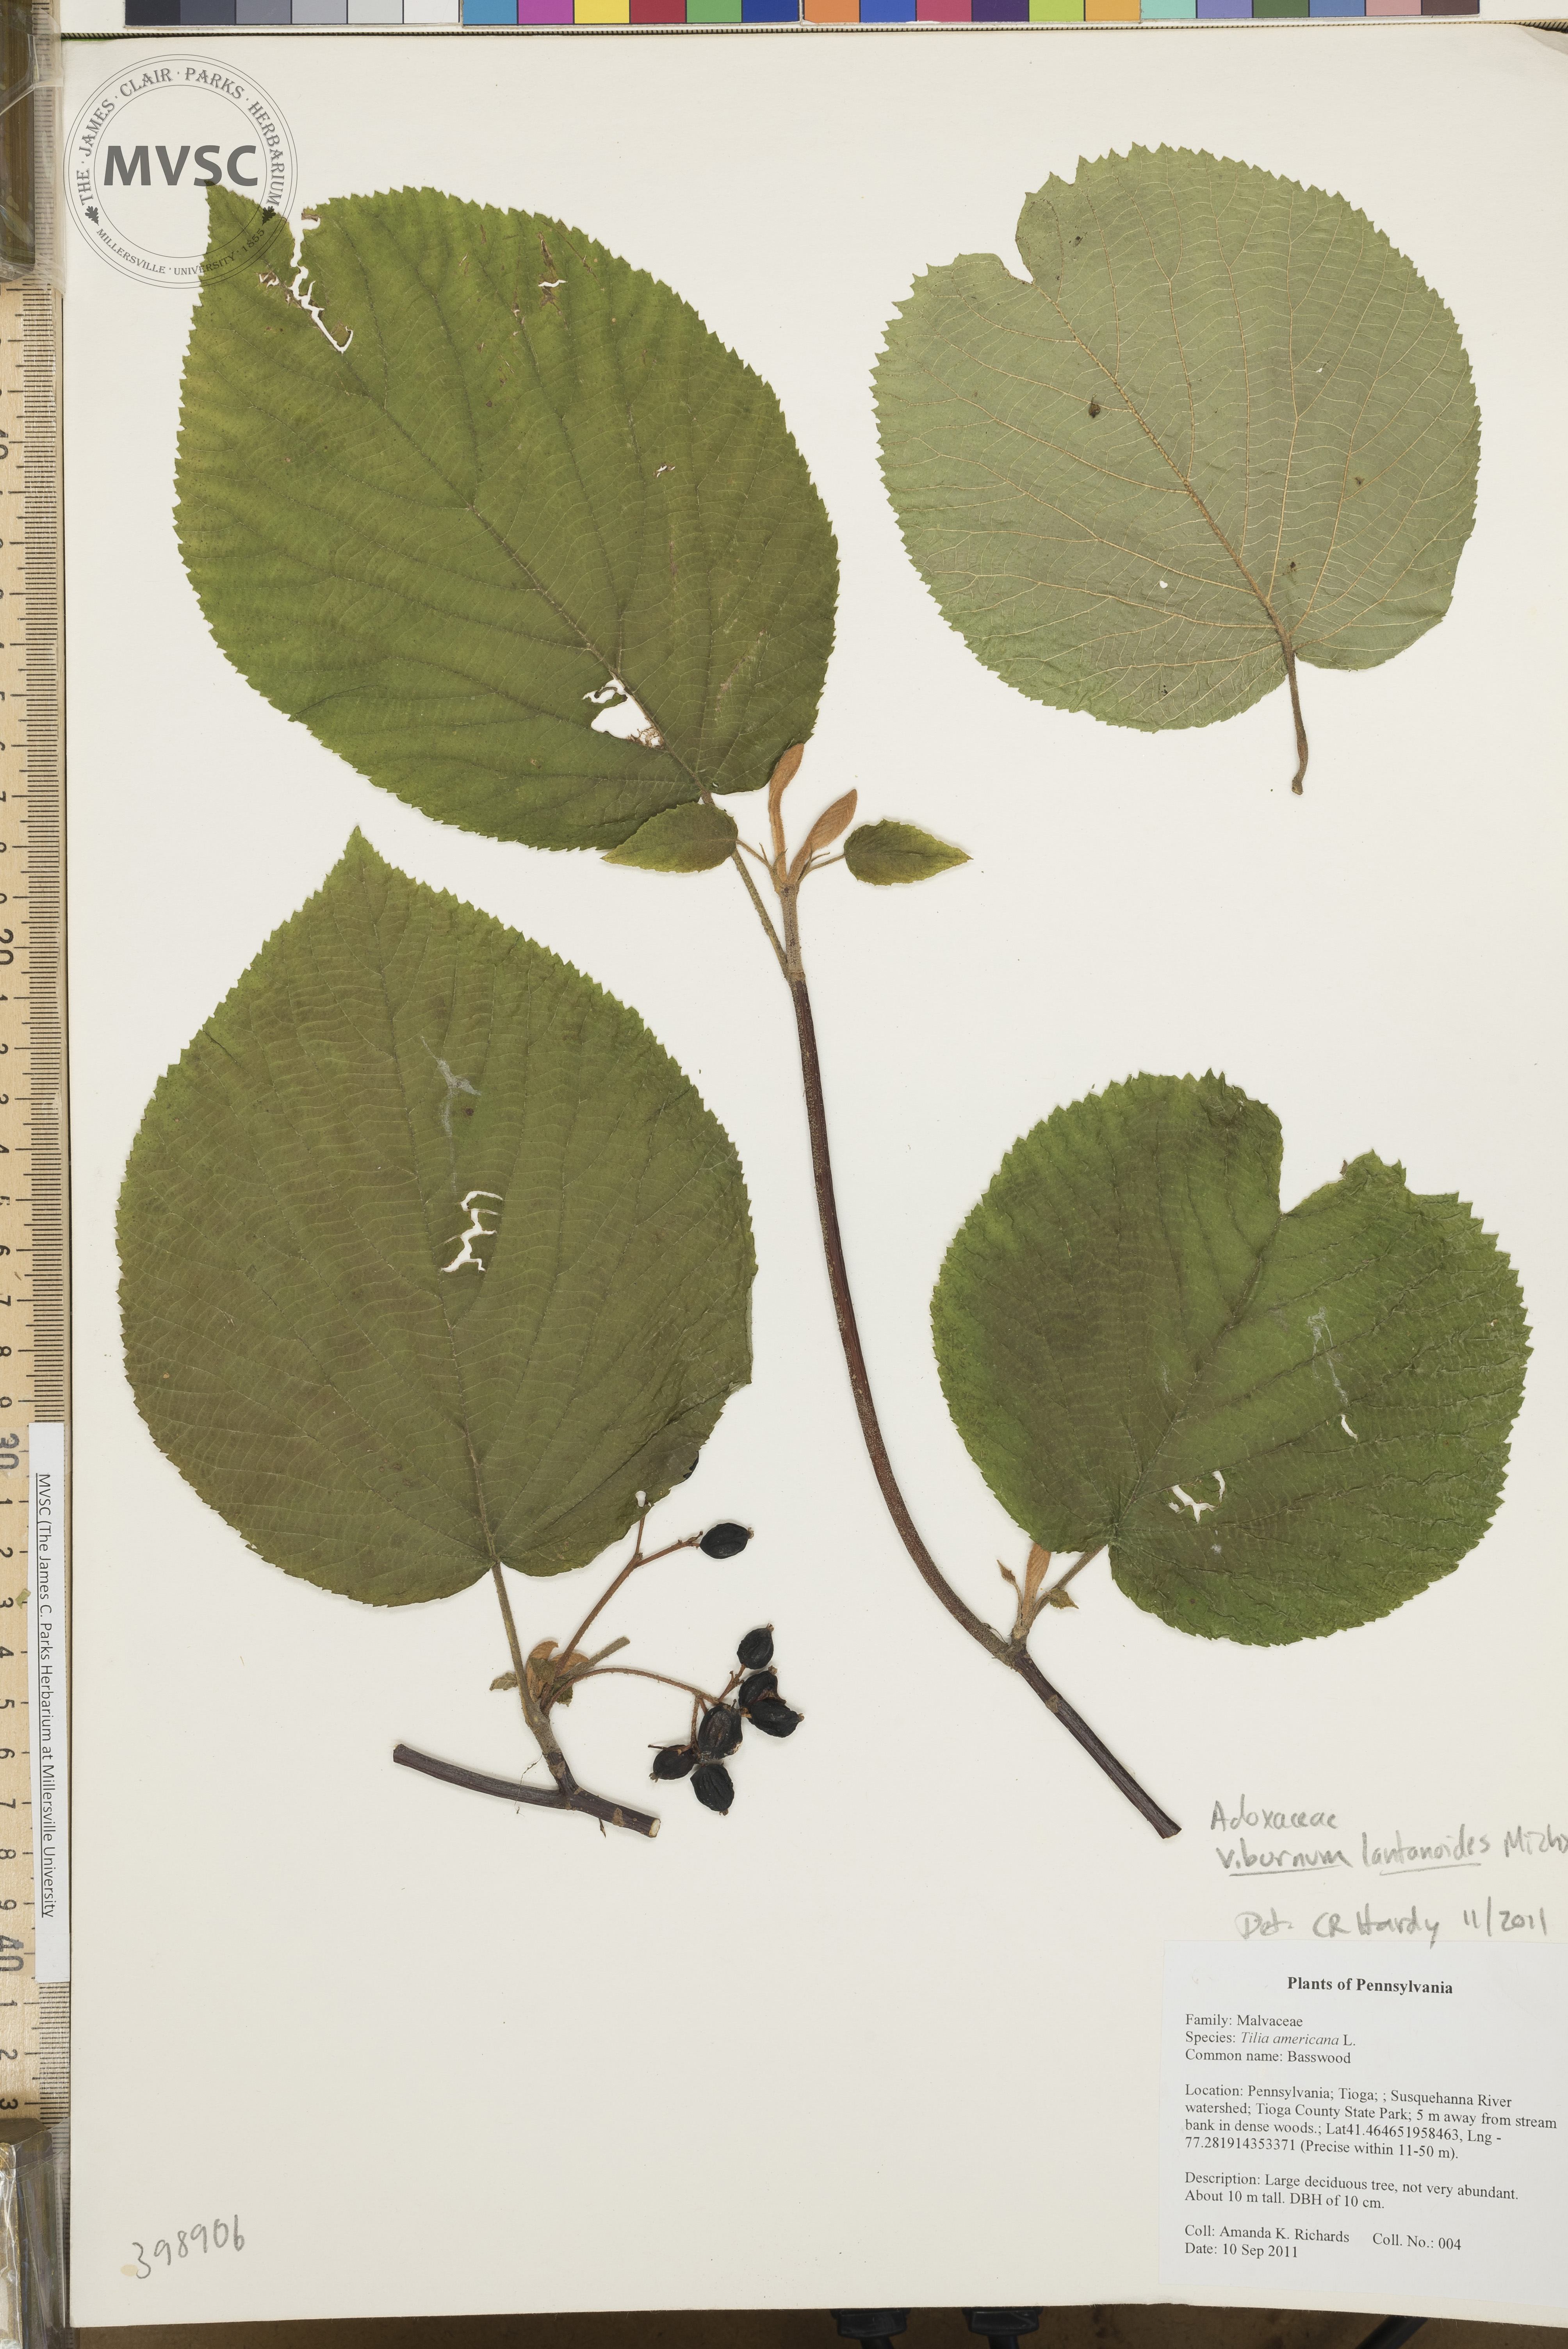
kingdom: Plantae
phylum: Tracheophyta
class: Magnoliopsida
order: Dipsacales
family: Viburnaceae
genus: Viburnum
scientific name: Viburnum lantanoides
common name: Hobblebush
